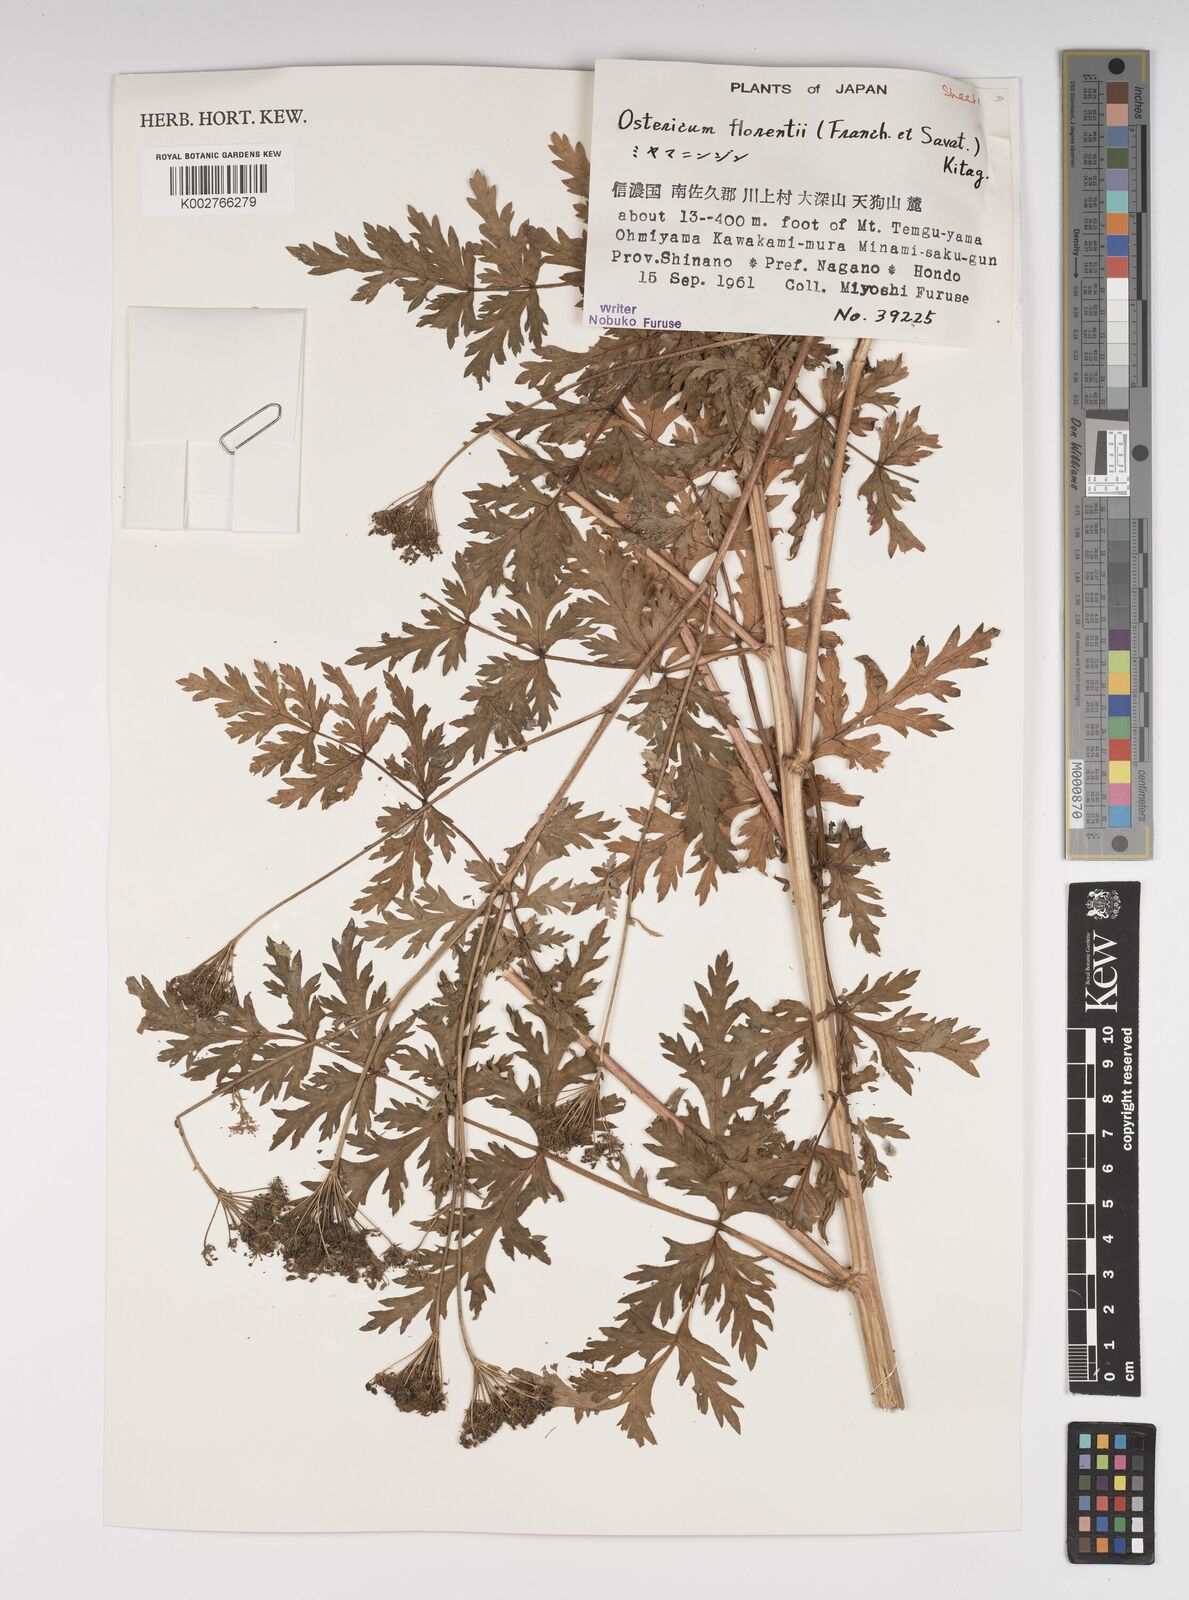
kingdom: Plantae
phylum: Tracheophyta
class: Magnoliopsida
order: Apiales
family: Apiaceae
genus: Ostericum
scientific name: Ostericum florenti
